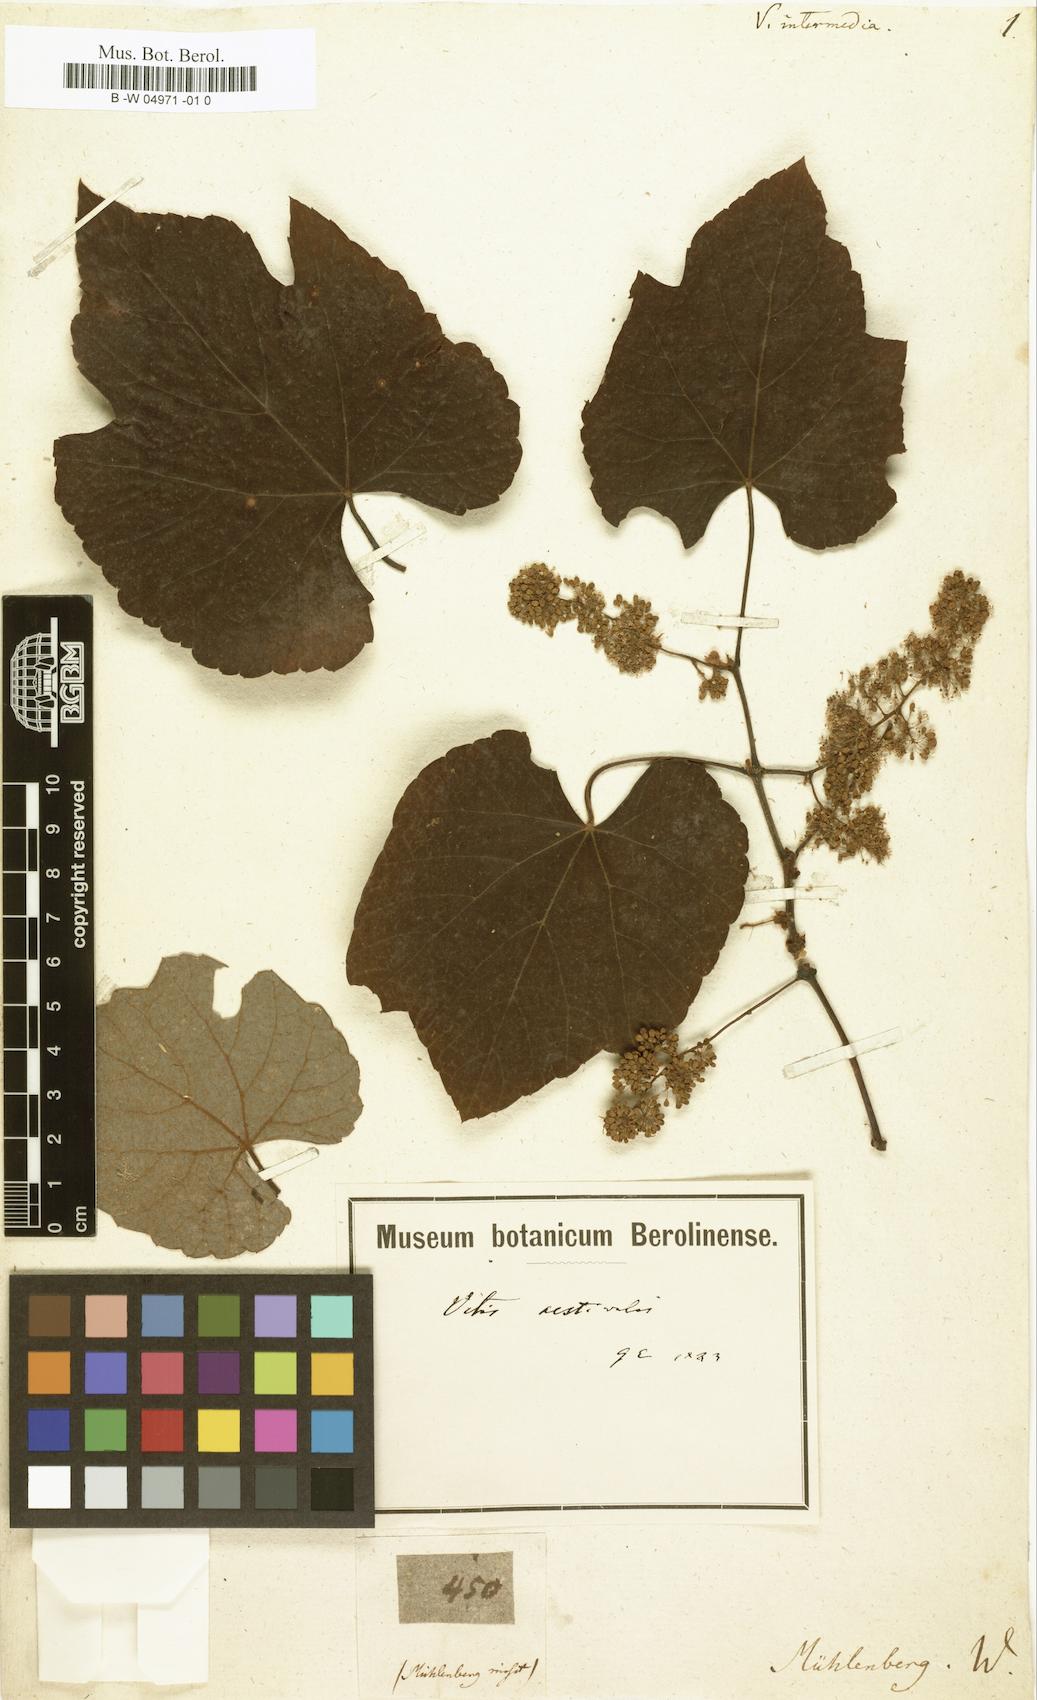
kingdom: Plantae
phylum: Tracheophyta
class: Magnoliopsida
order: Vitales
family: Vitaceae
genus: Vitis
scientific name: Vitis aestivalis
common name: Pigeon grape
